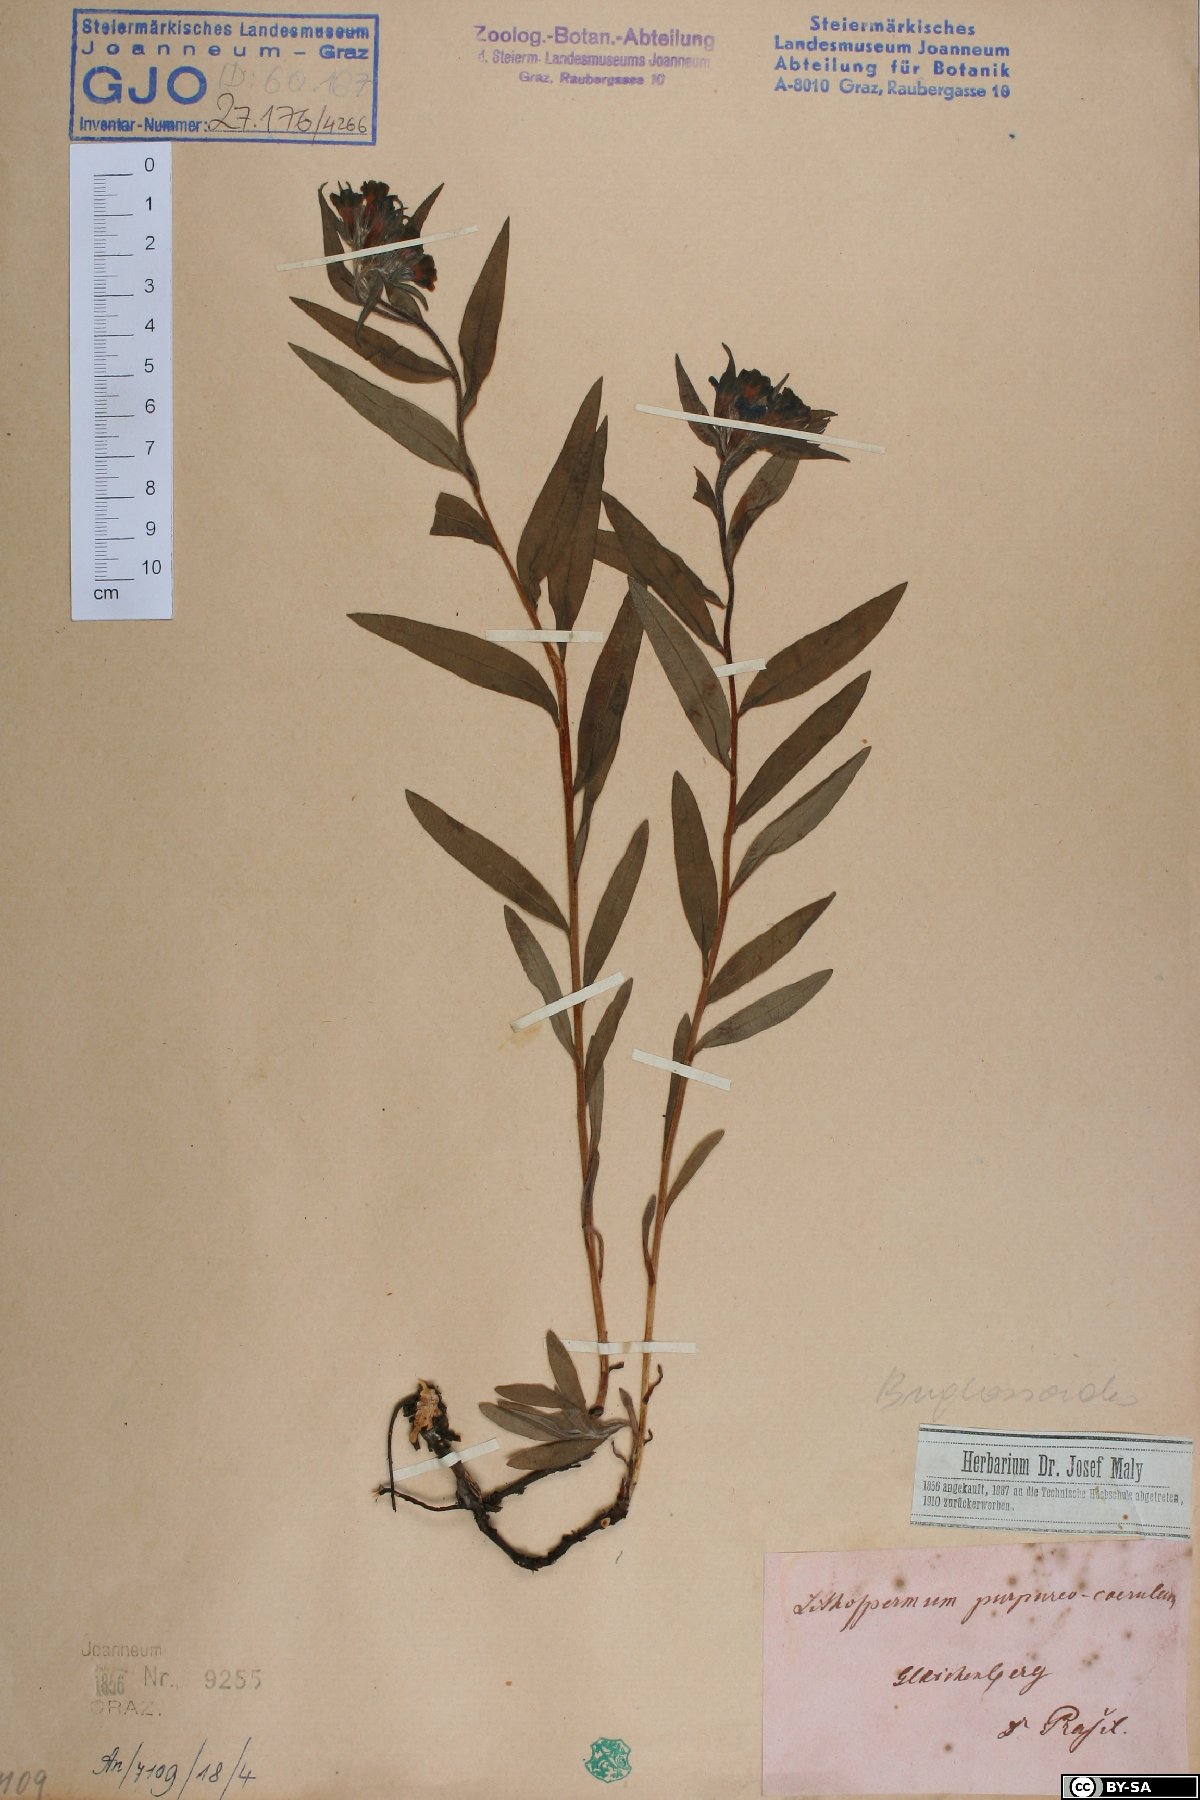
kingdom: Plantae
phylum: Tracheophyta
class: Magnoliopsida
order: Boraginales
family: Boraginaceae
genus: Aegonychon
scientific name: Aegonychon purpurocaeruleum
